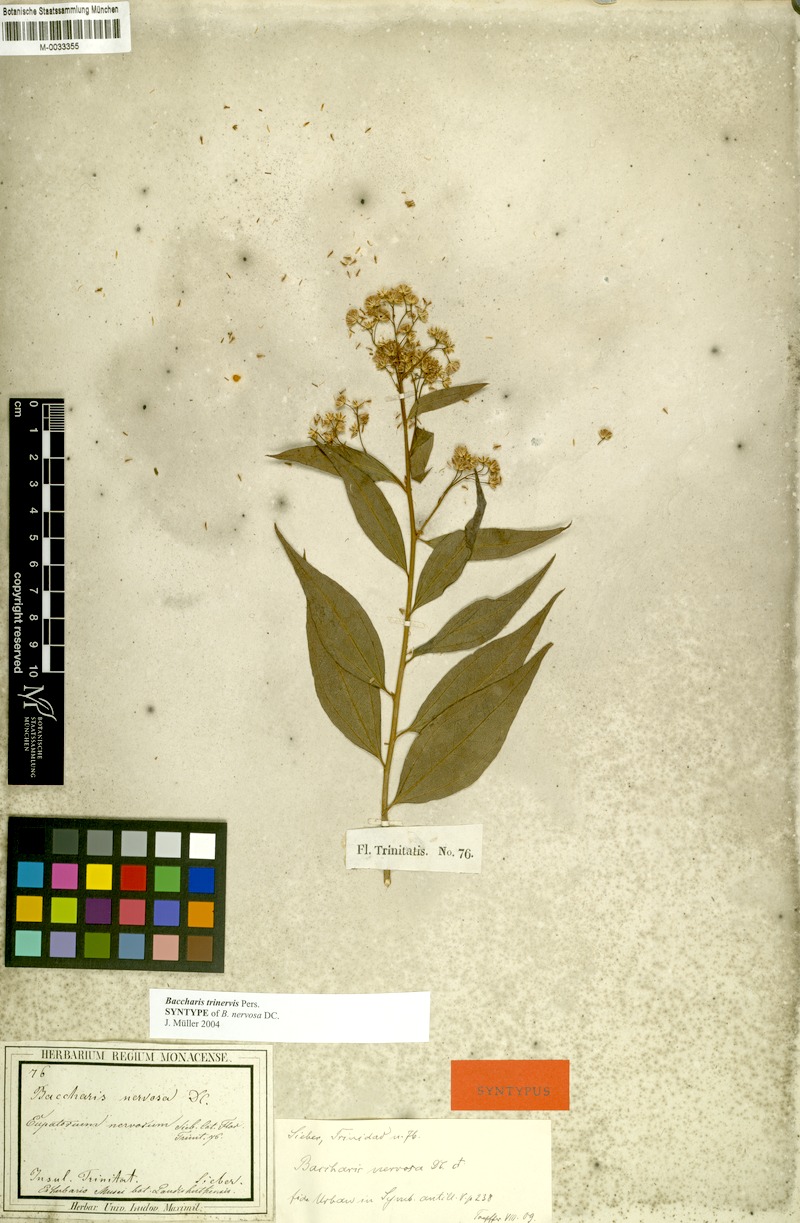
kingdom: Plantae
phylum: Tracheophyta
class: Magnoliopsida
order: Asterales
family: Asteraceae
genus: Baccharis
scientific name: Baccharis trinervis
